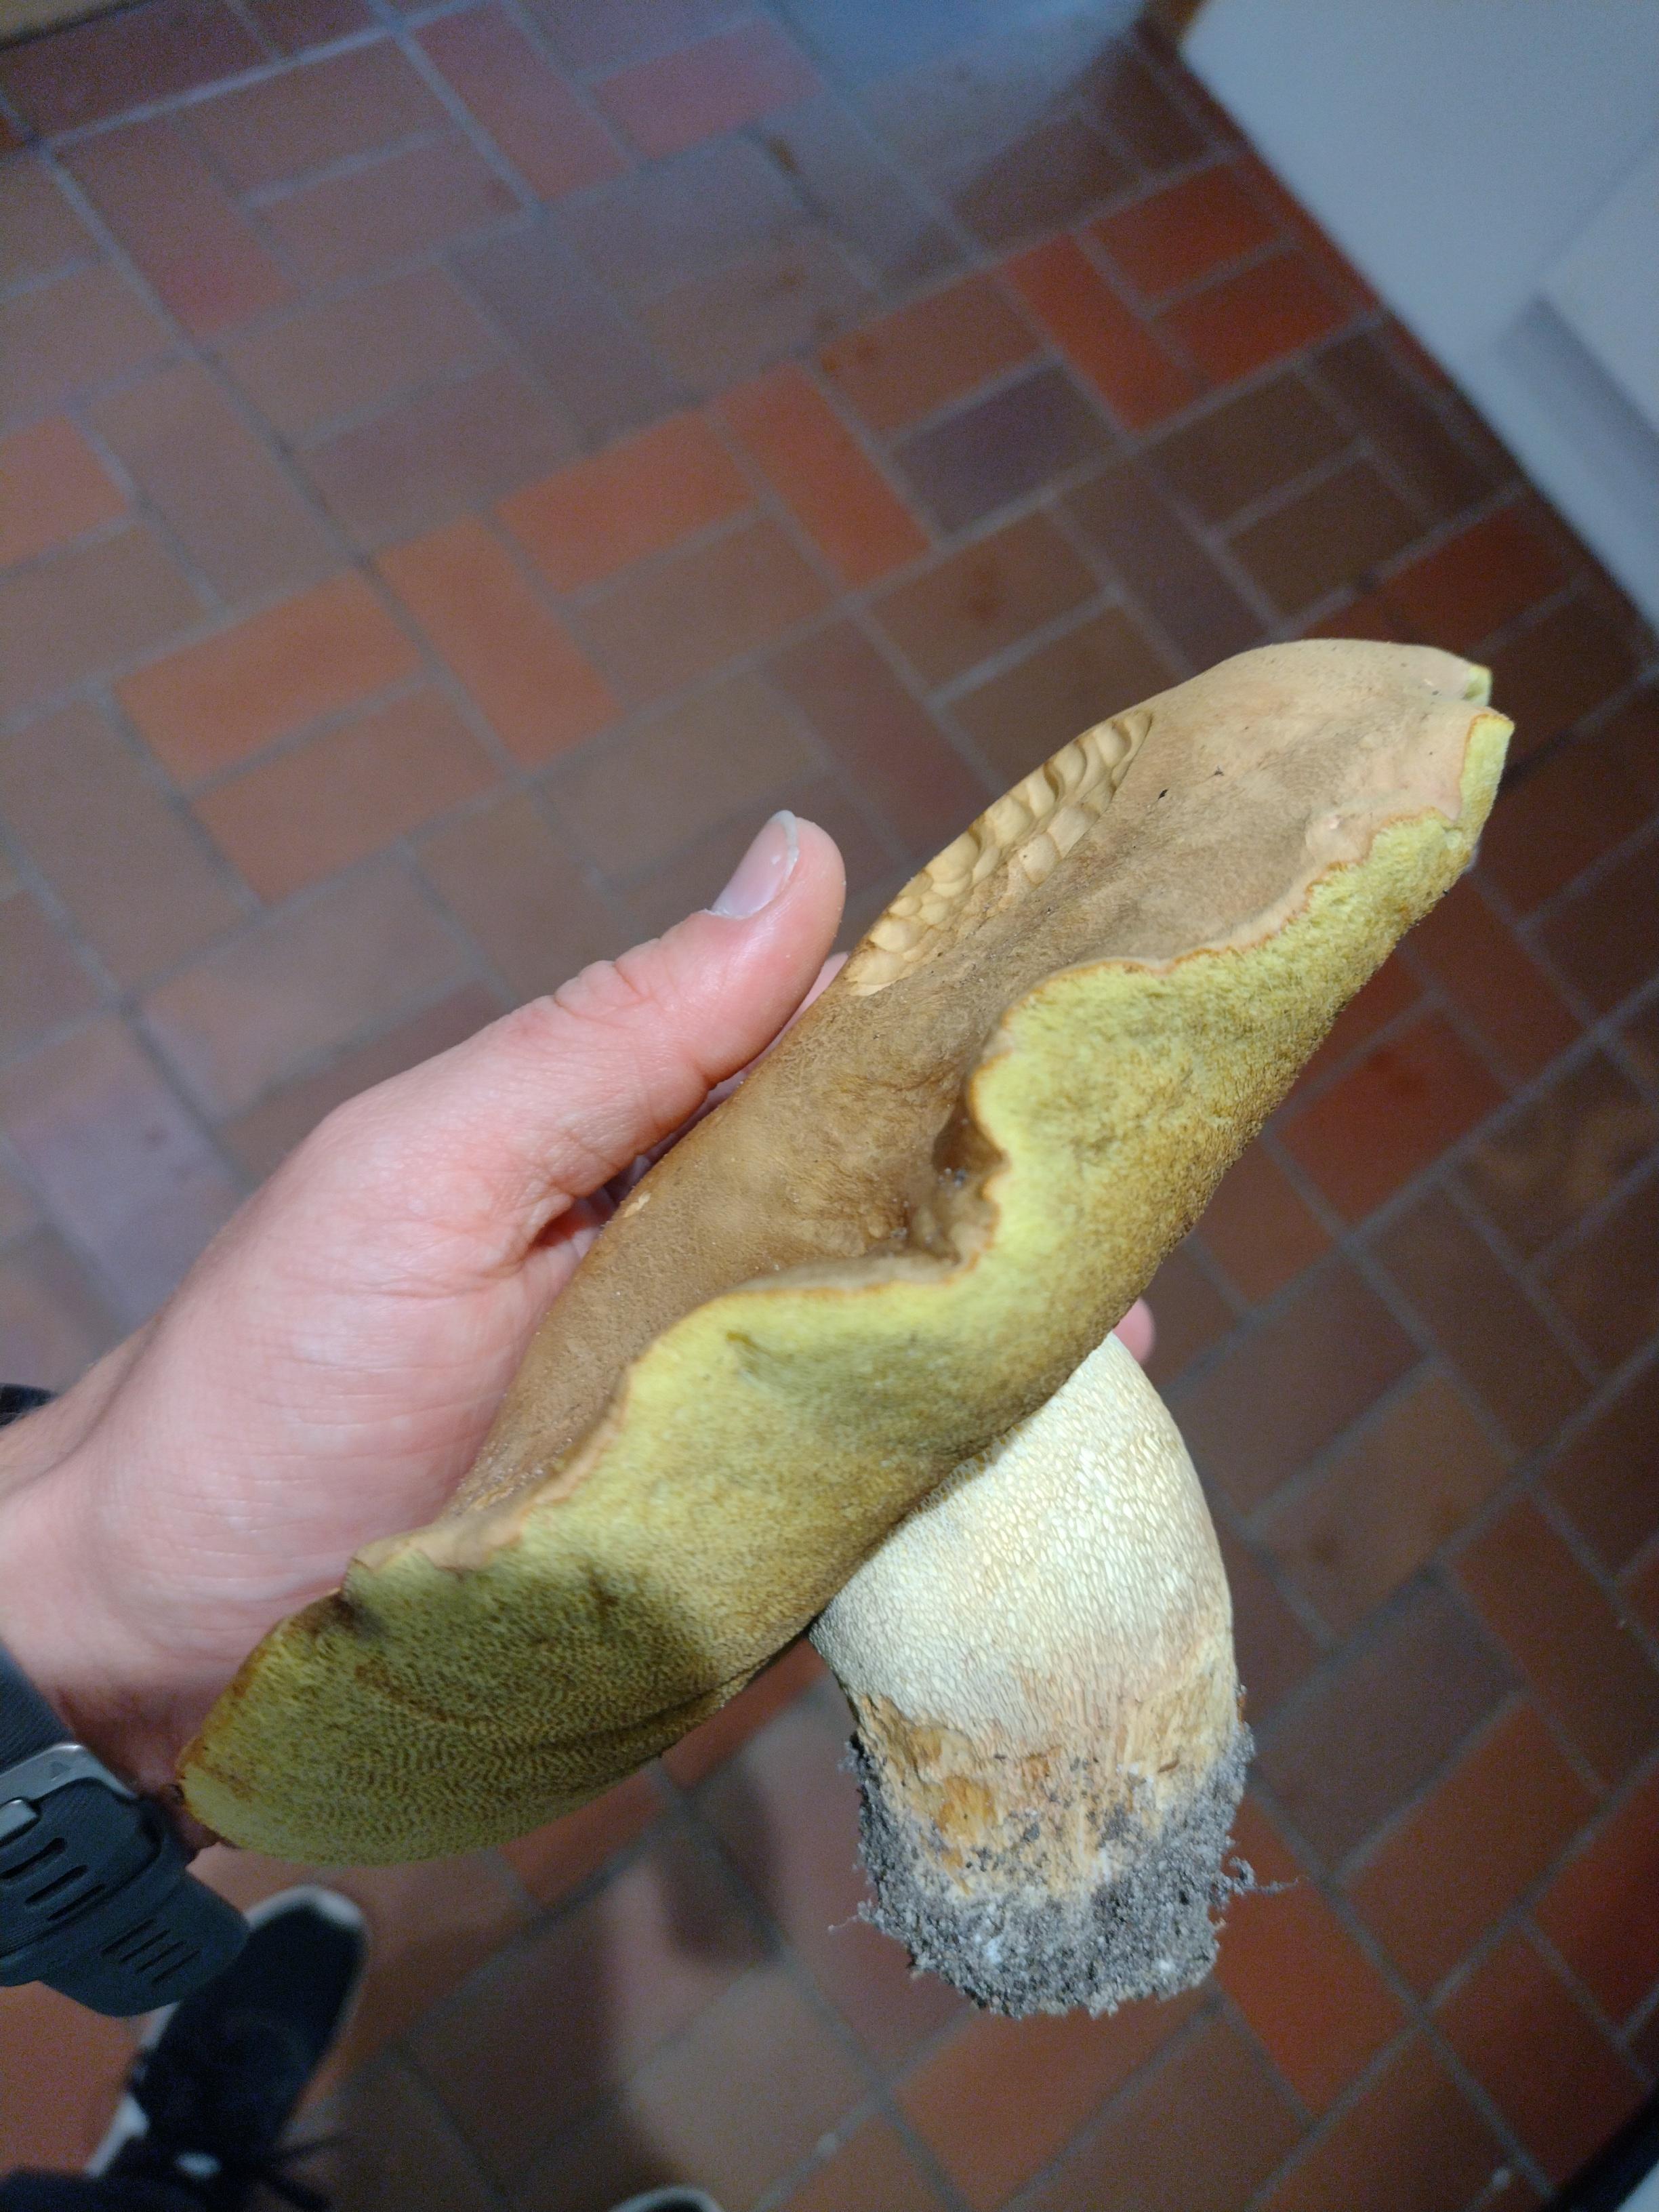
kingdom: Fungi
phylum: Basidiomycota
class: Agaricomycetes
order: Boletales
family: Boletaceae
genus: Butyriboletus
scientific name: Butyriboletus appendiculatus
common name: tenstokket rørhat
